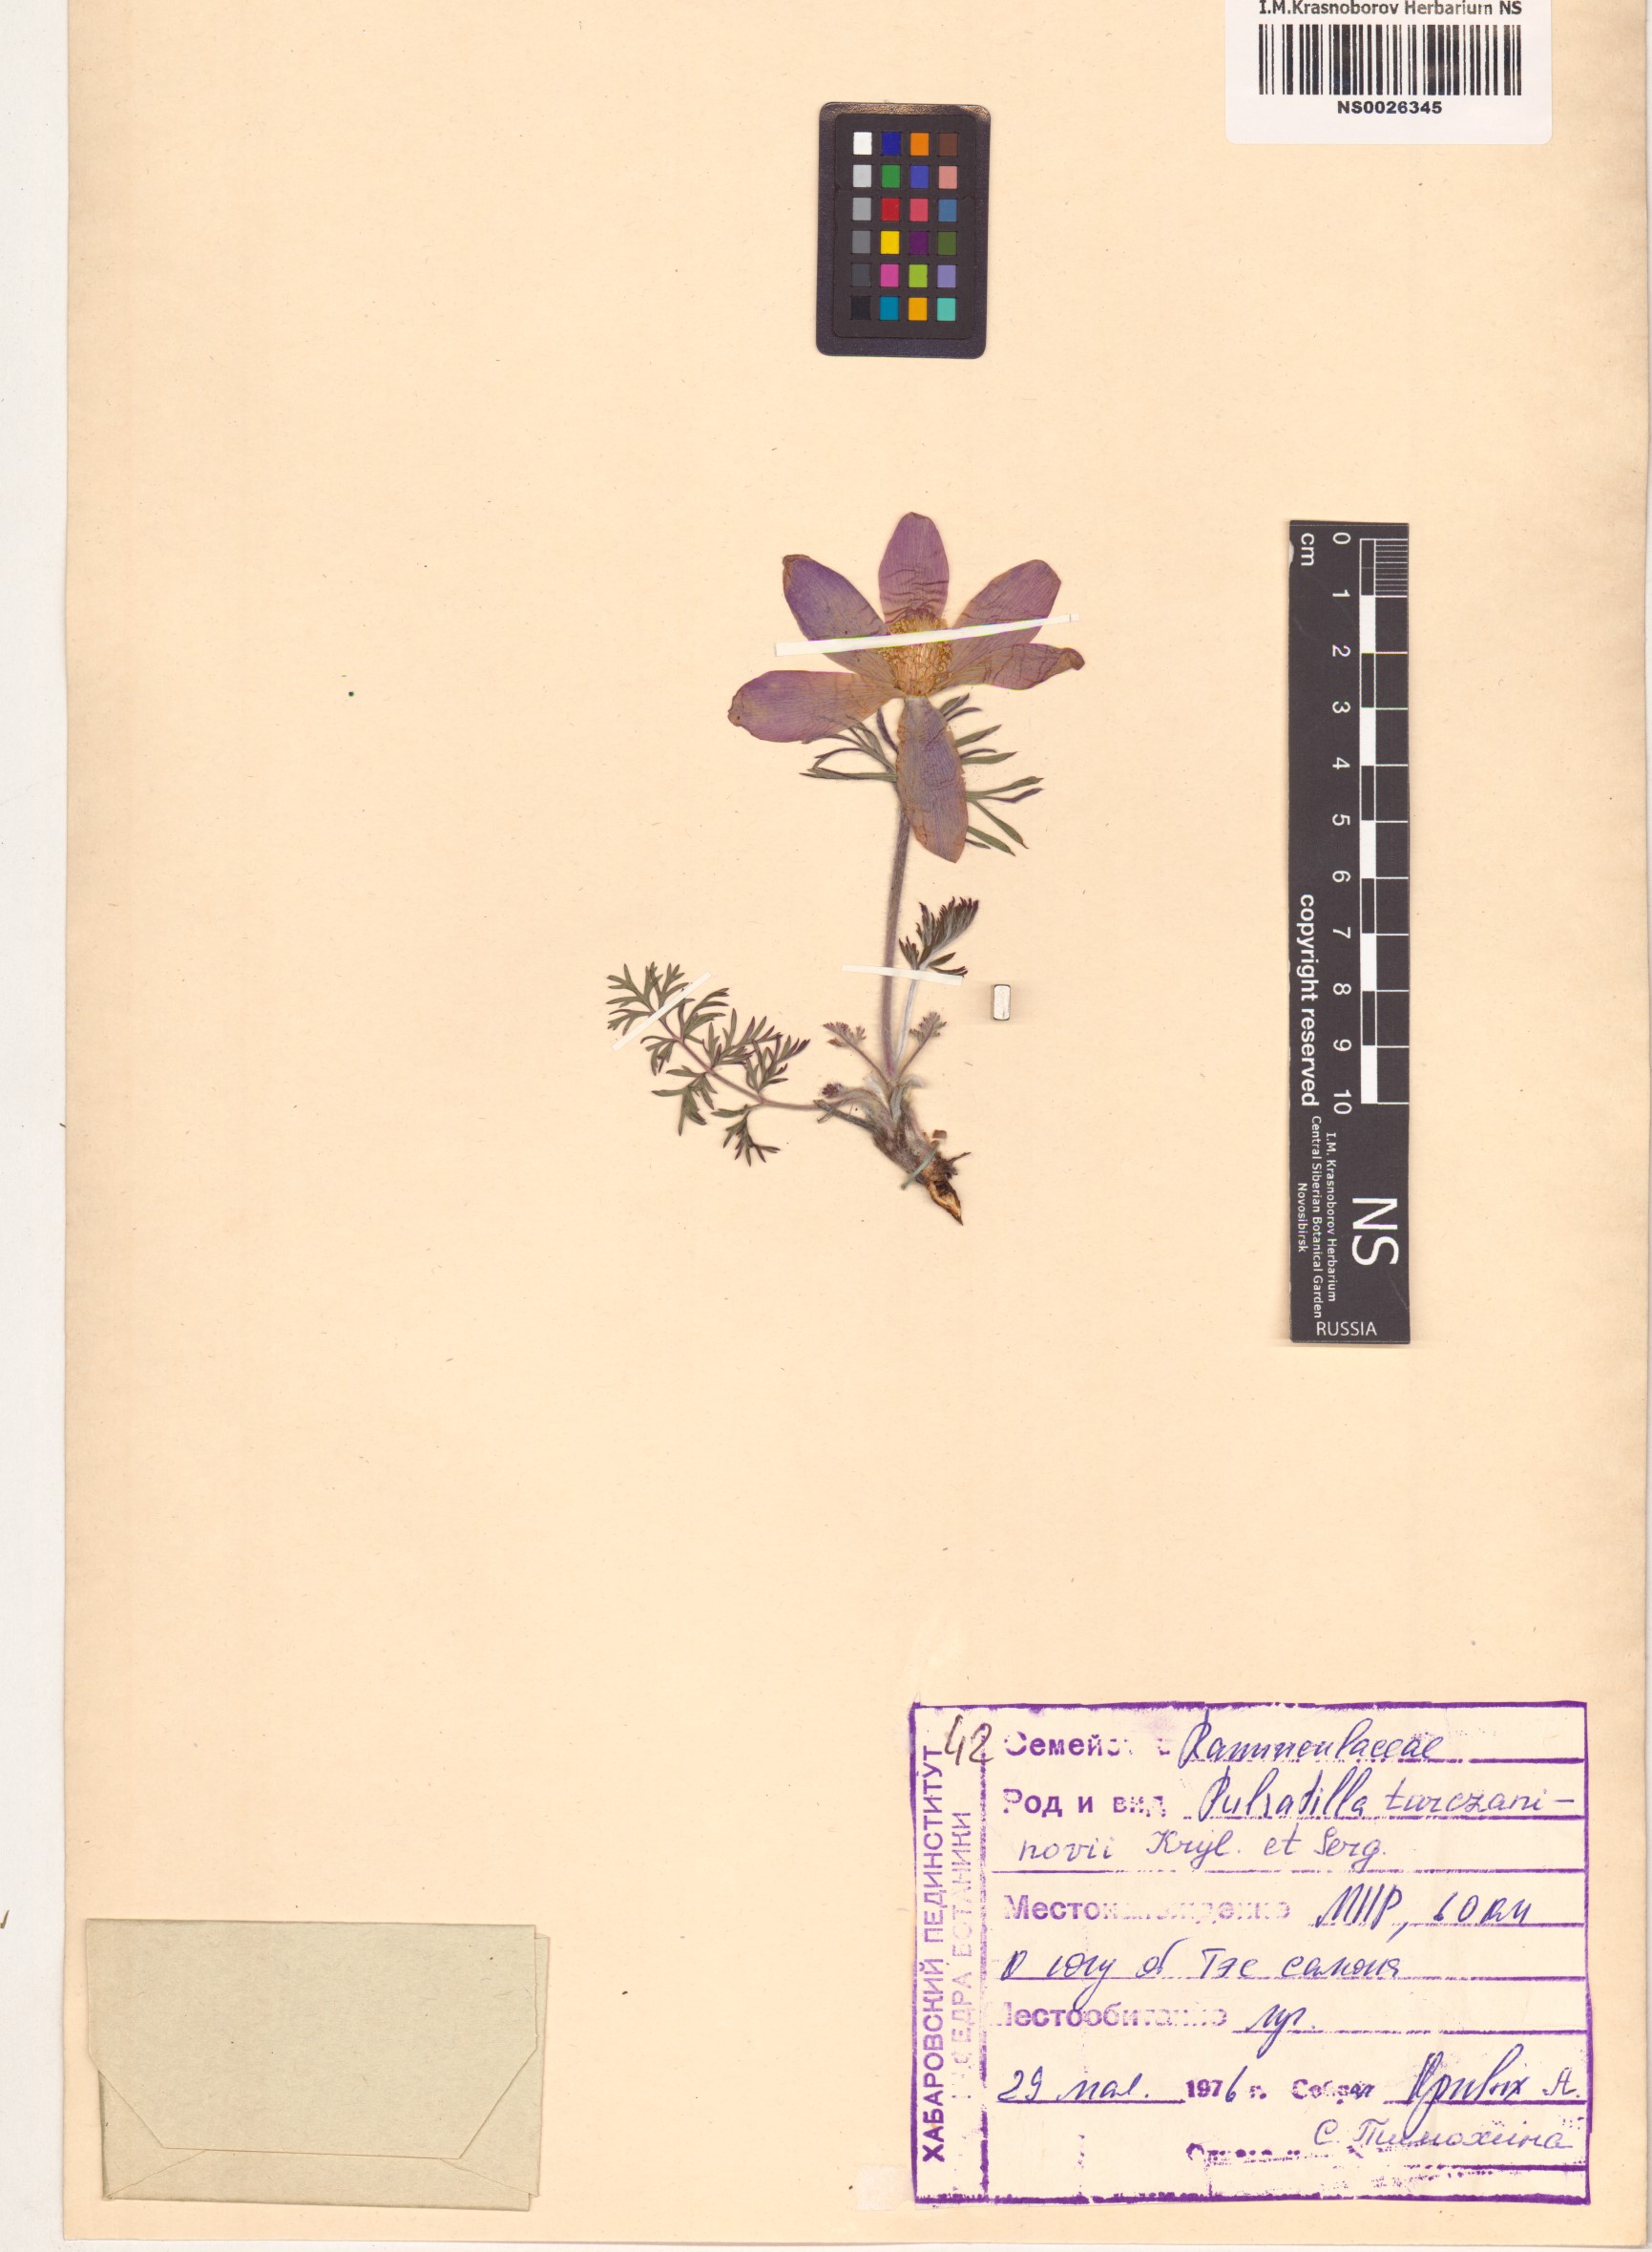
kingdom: Plantae
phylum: Tracheophyta
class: Magnoliopsida
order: Ranunculales
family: Ranunculaceae
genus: Pulsatilla
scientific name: Pulsatilla turczaninovii
